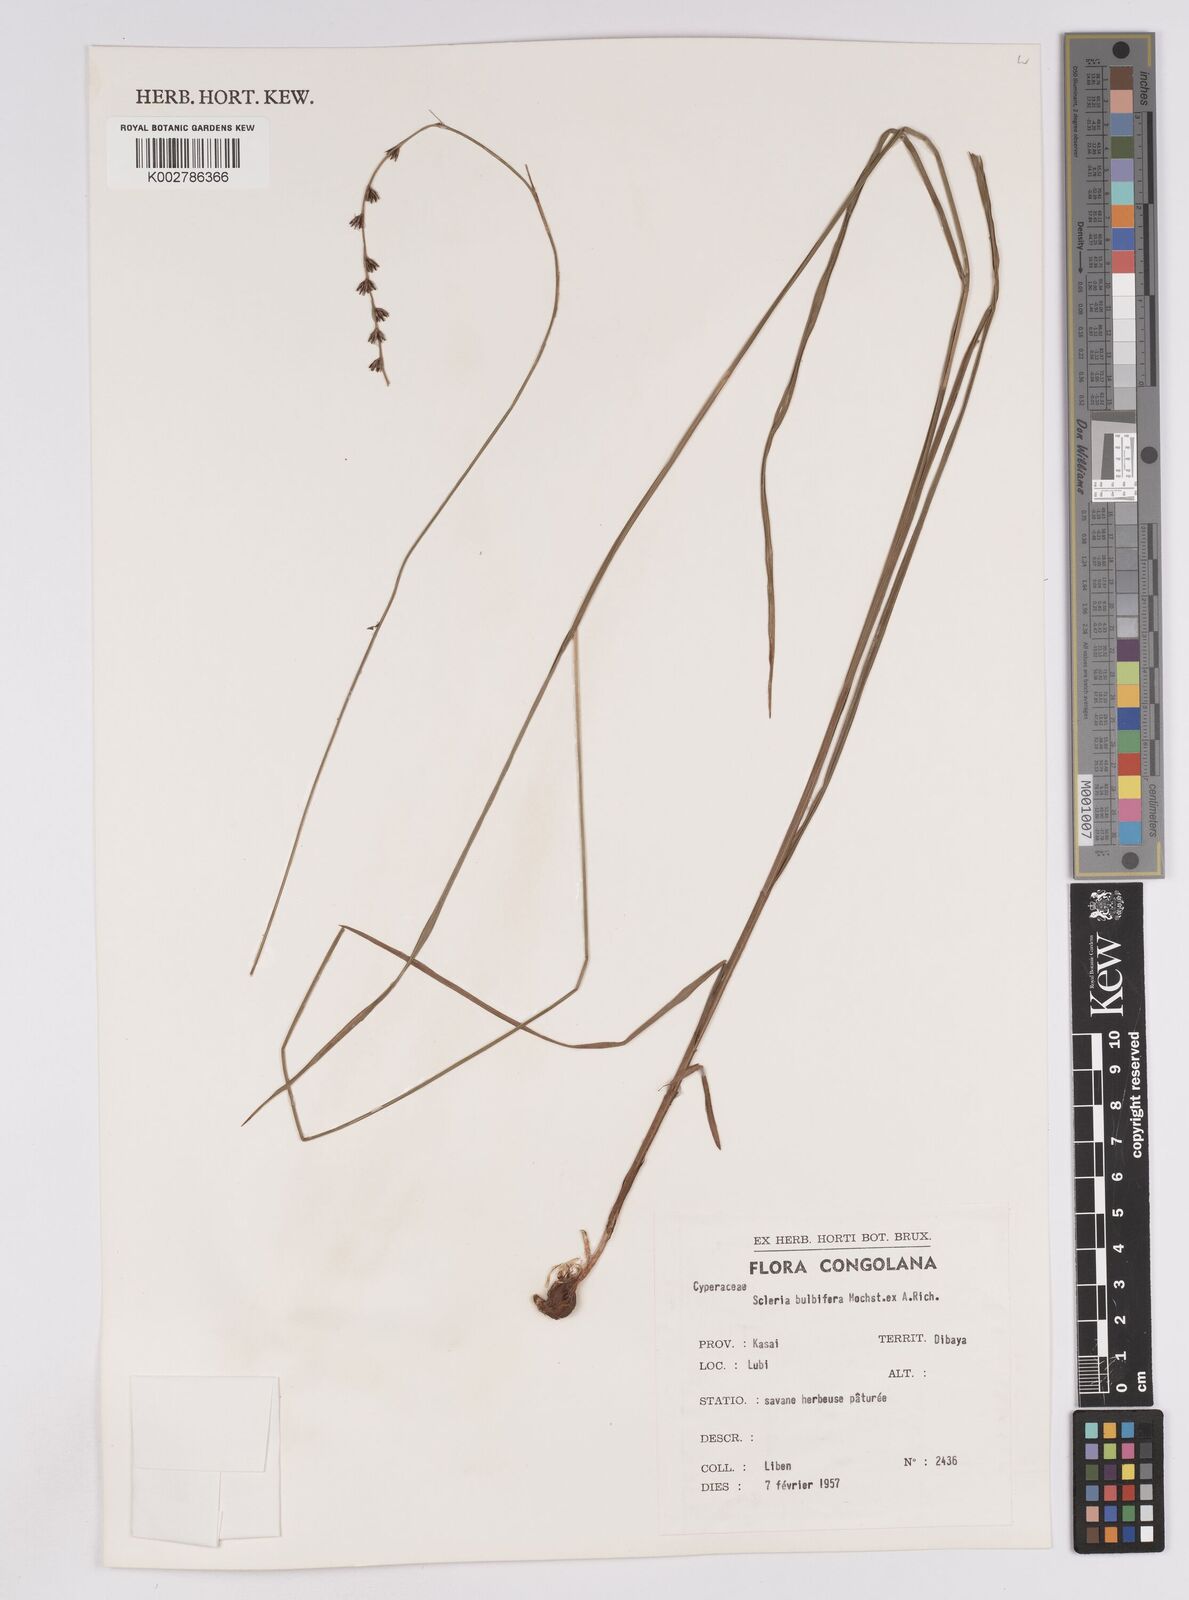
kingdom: Plantae
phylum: Tracheophyta
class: Liliopsida
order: Poales
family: Cyperaceae
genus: Scleria
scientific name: Scleria bulbifera
